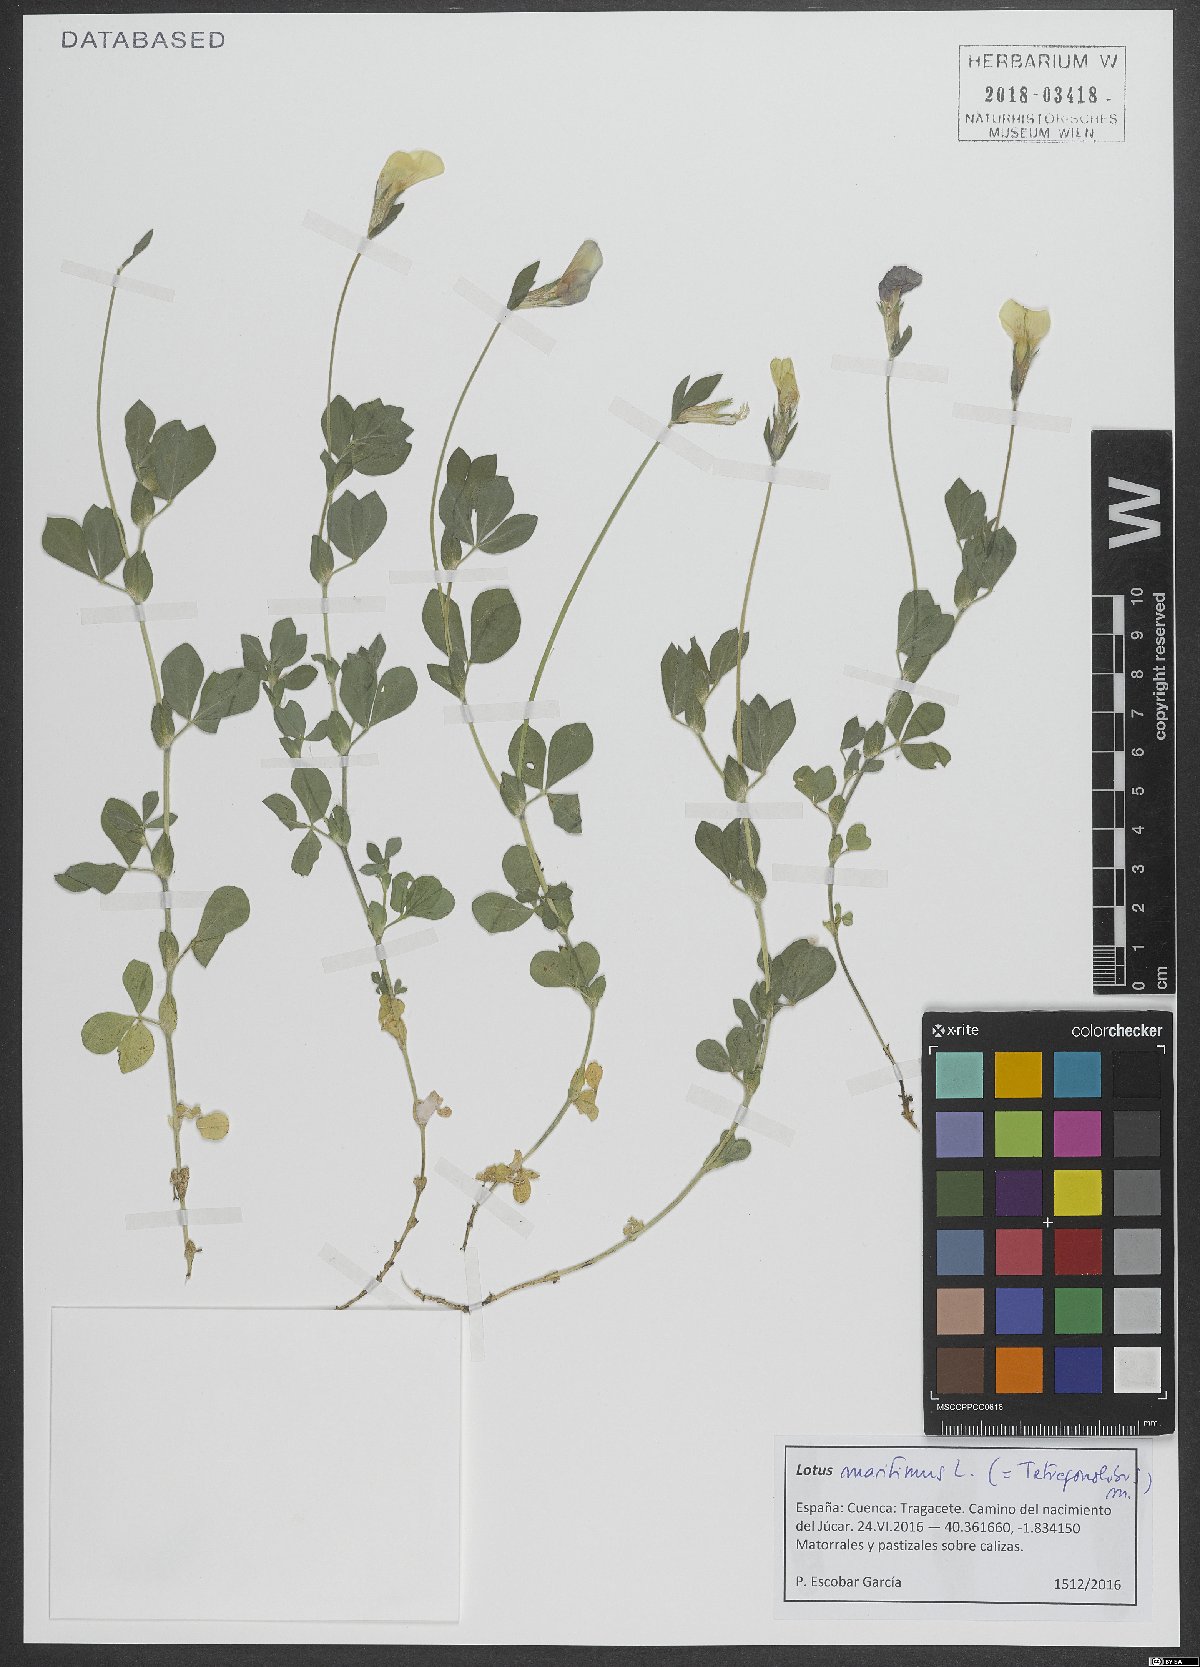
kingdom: Plantae
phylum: Tracheophyta
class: Magnoliopsida
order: Fabales
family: Fabaceae
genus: Lotus
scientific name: Lotus maritimus
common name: Dragon's-teeth
